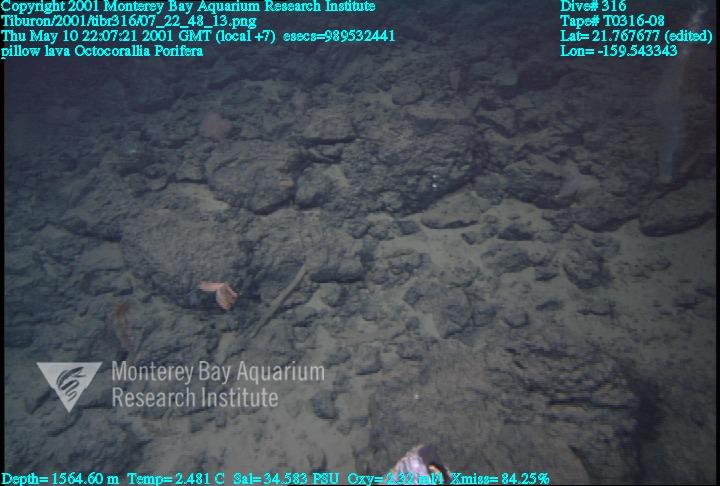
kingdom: Animalia
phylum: Porifera
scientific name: Porifera
